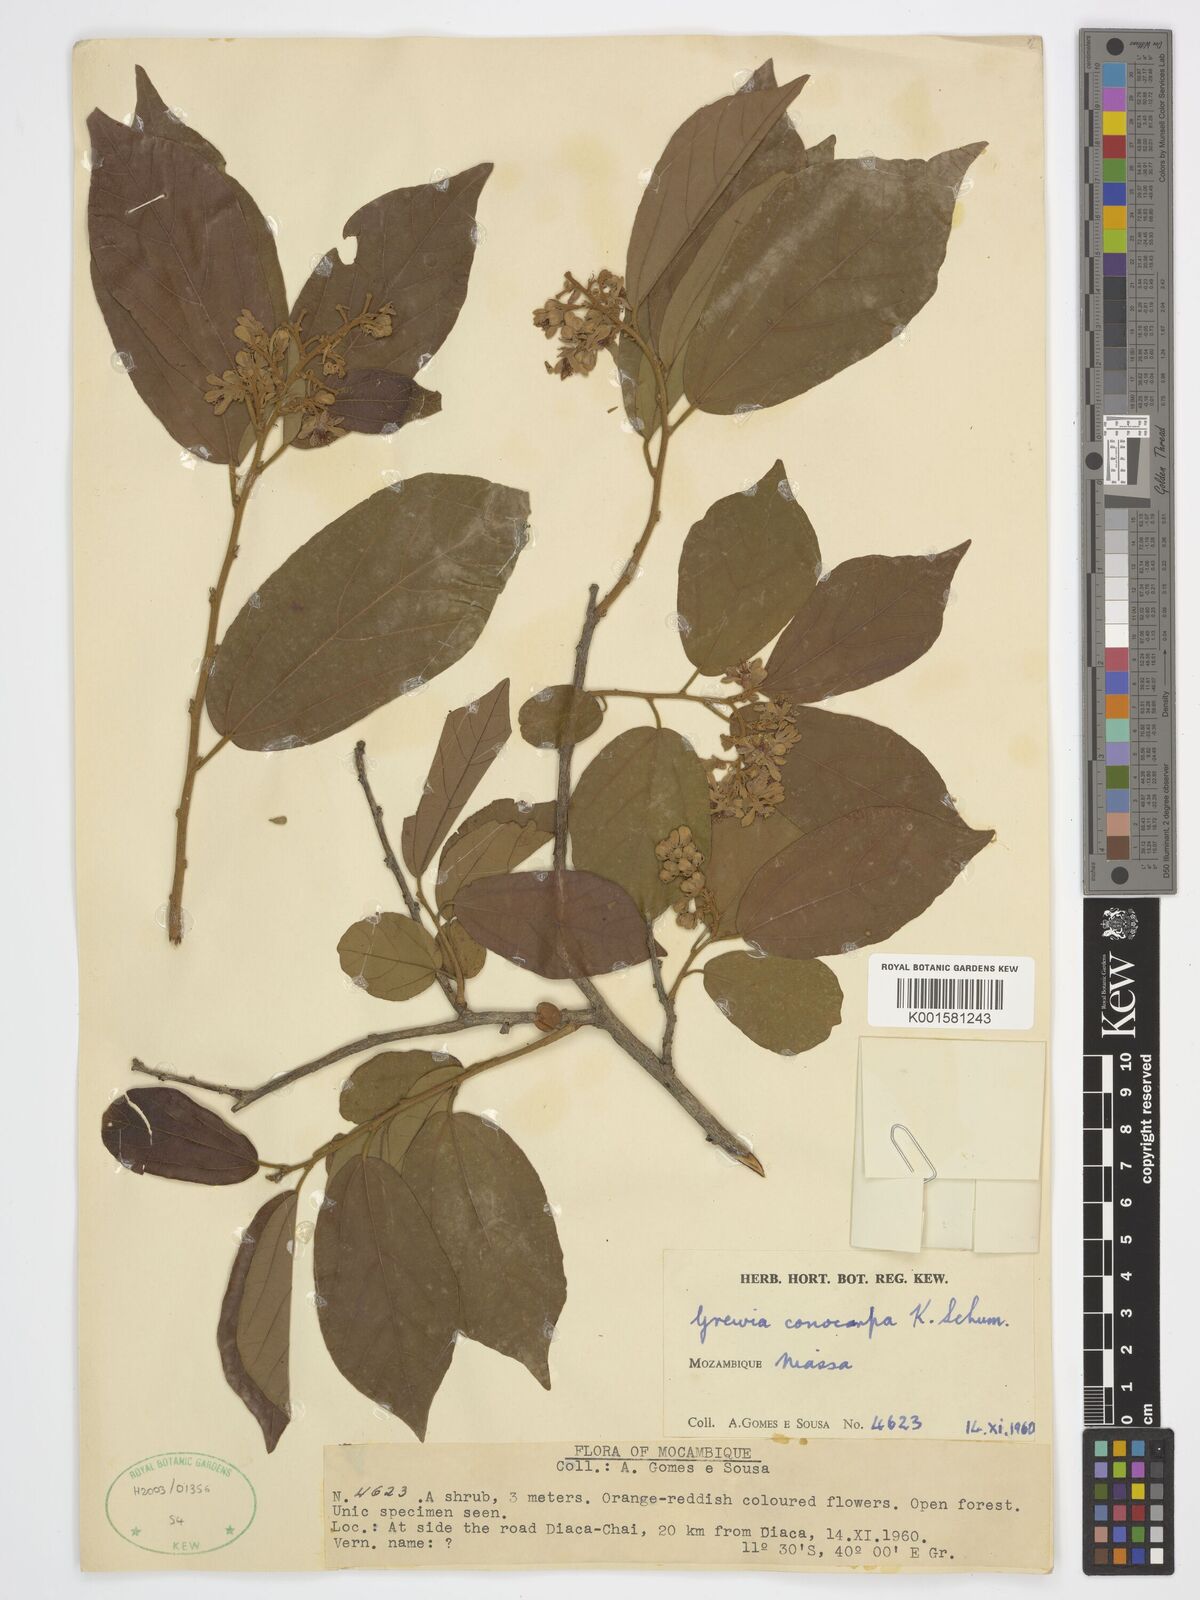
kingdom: Plantae
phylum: Tracheophyta
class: Magnoliopsida
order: Malvales
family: Malvaceae
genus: Microcos
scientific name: Microcos conocarpa
